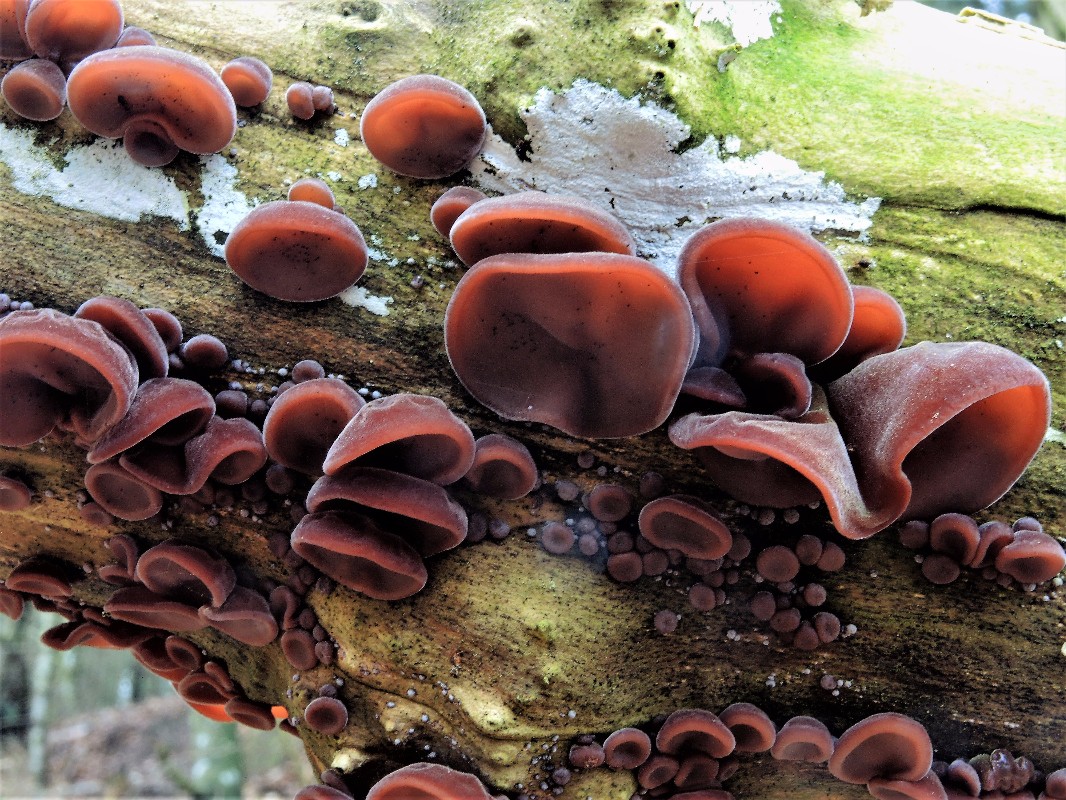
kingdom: Fungi
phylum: Basidiomycota
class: Agaricomycetes
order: Auriculariales
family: Auriculariaceae
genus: Auricularia
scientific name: Auricularia auricula-judae
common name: almindelig judasøre
